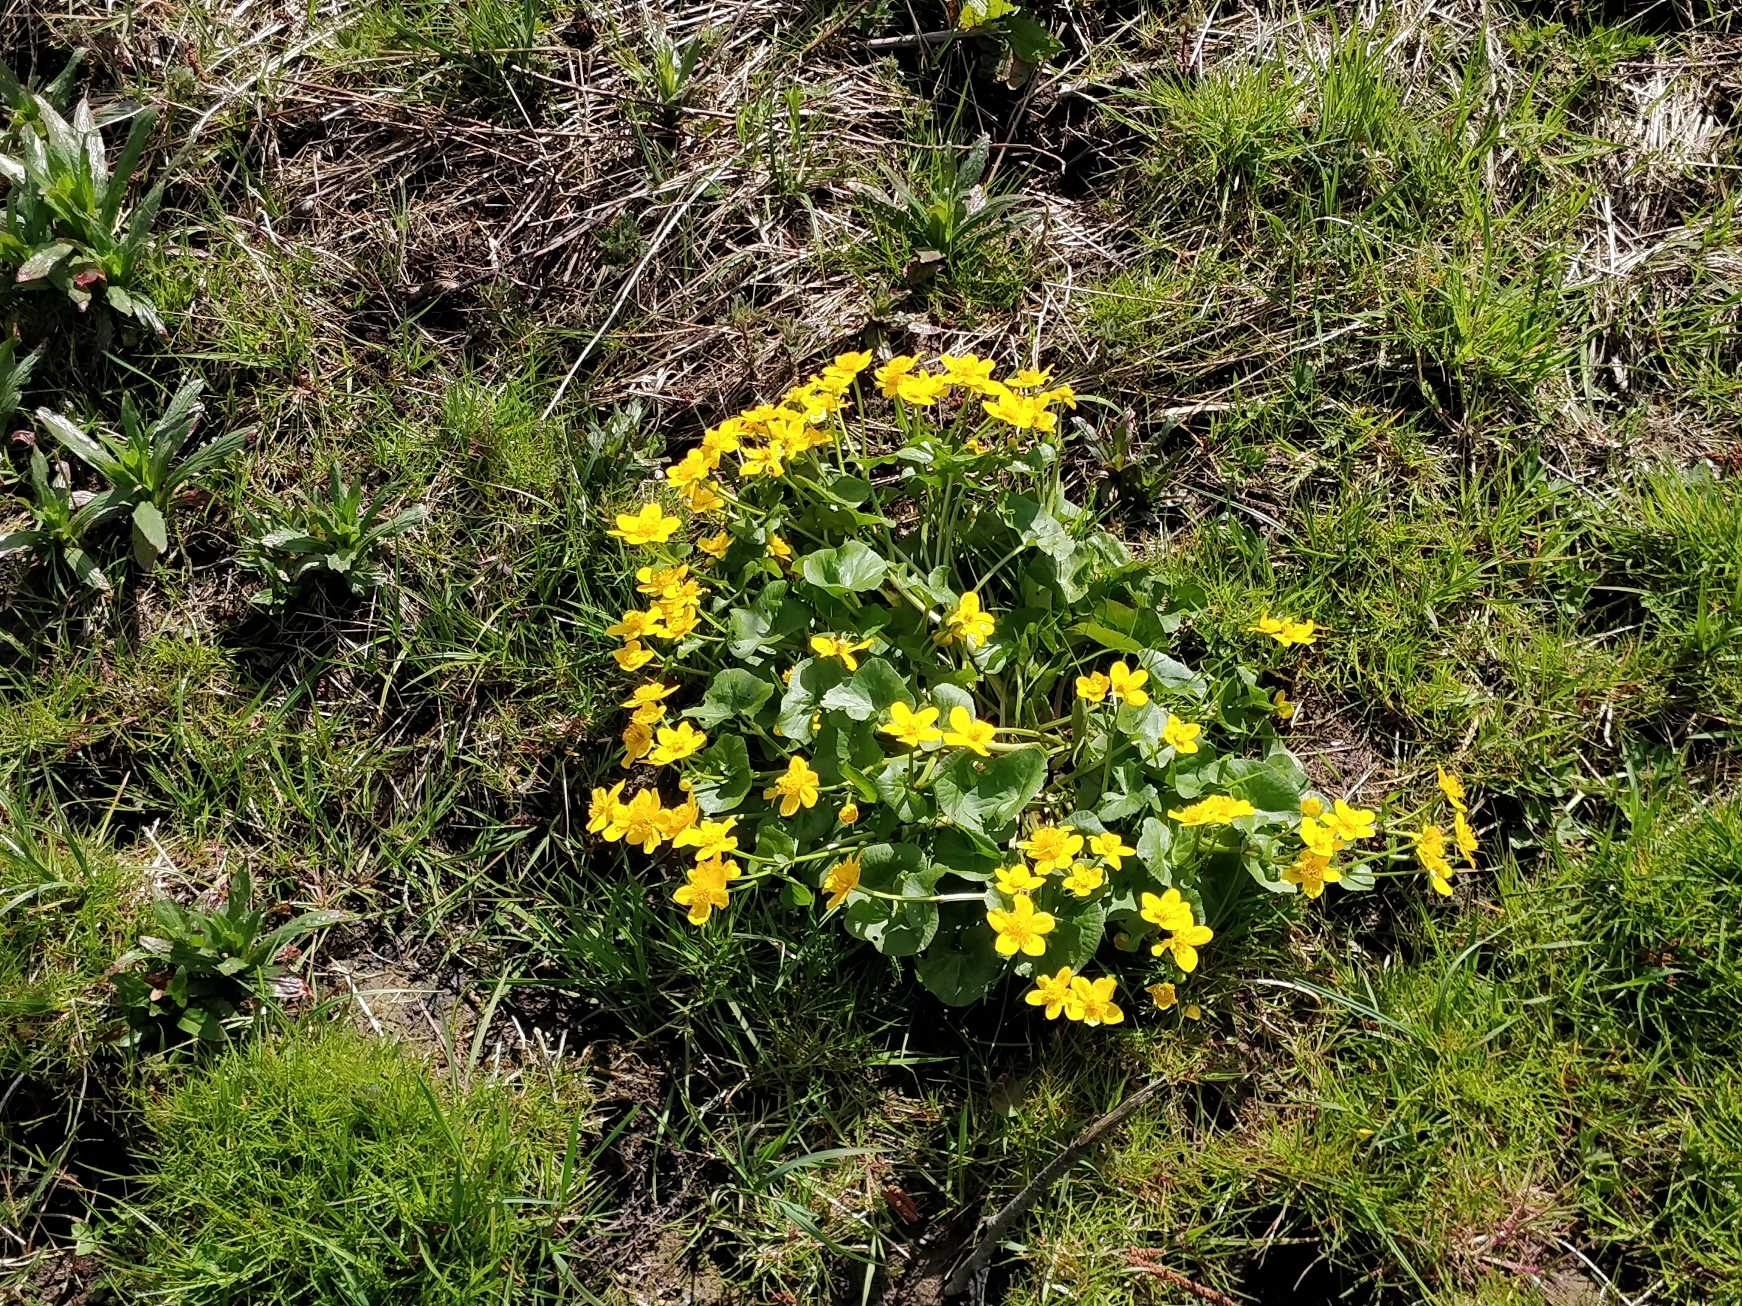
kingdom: Plantae
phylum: Tracheophyta
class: Magnoliopsida
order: Ranunculales
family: Ranunculaceae
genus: Caltha
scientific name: Caltha palustris
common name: Eng-kabbeleje
